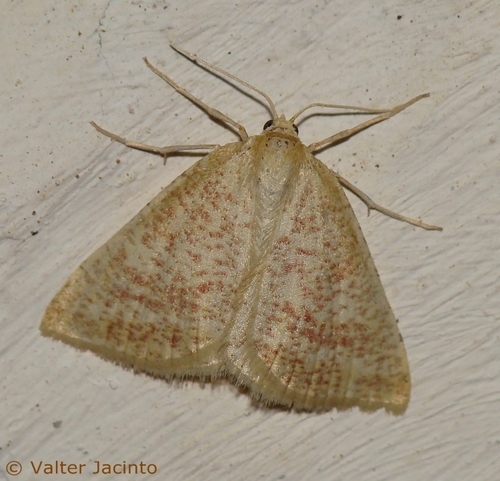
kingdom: Animalia
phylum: Arthropoda
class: Insecta
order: Lepidoptera
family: Geometridae
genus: Aplasta
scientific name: Aplasta ononaria
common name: Rest harrow
